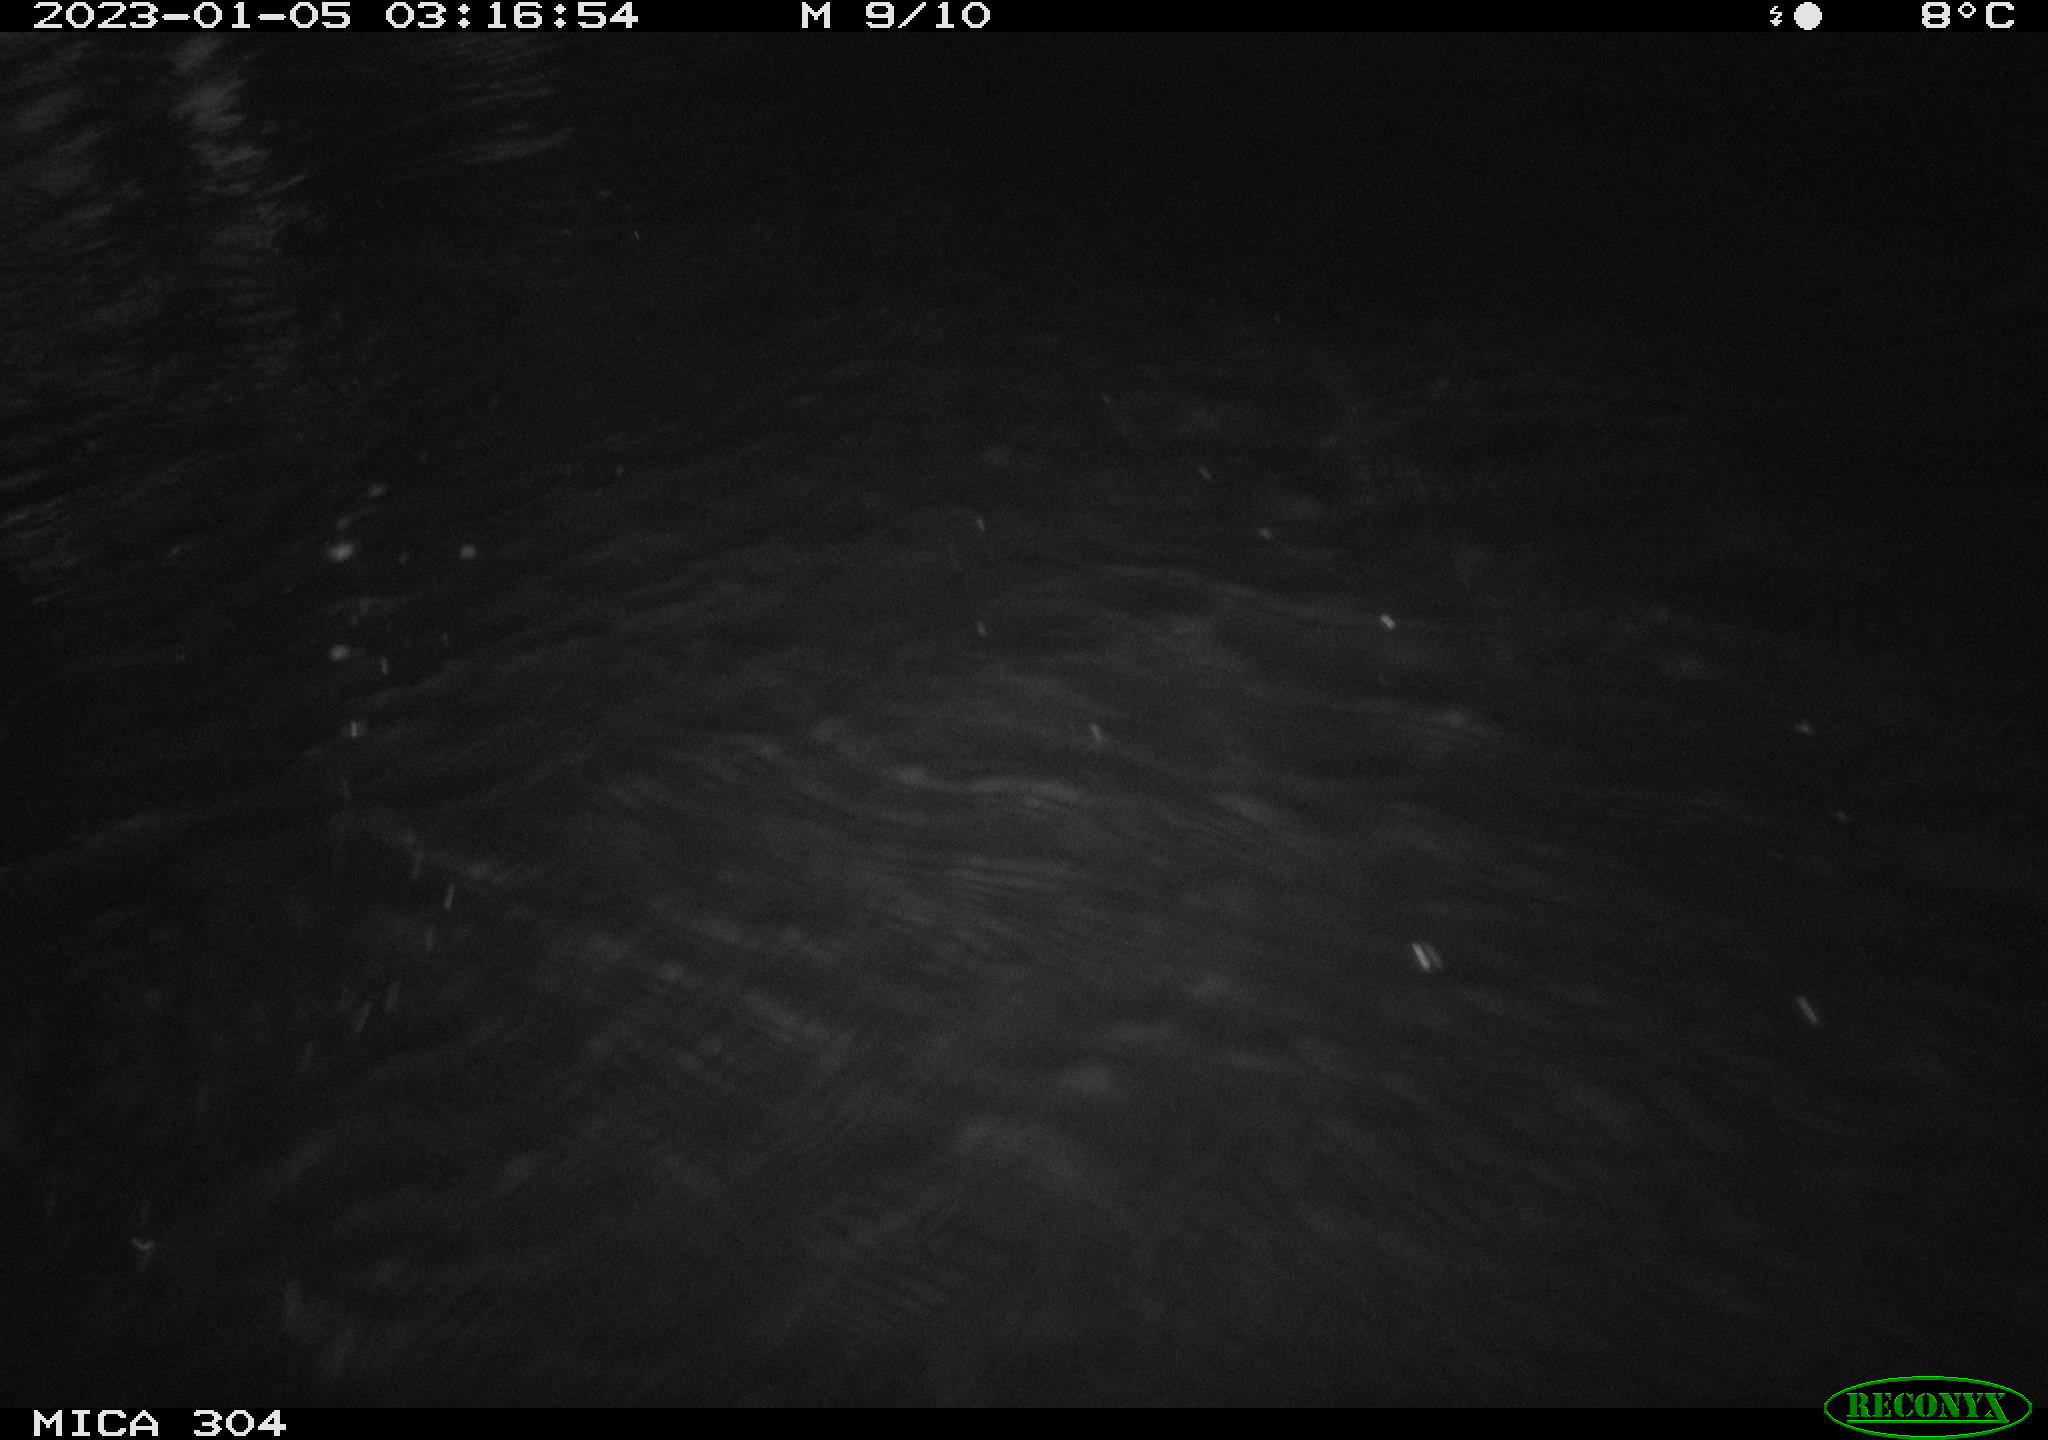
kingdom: Animalia
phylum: Chordata
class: Aves
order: Anseriformes
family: Anatidae
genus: Anas
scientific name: Anas
